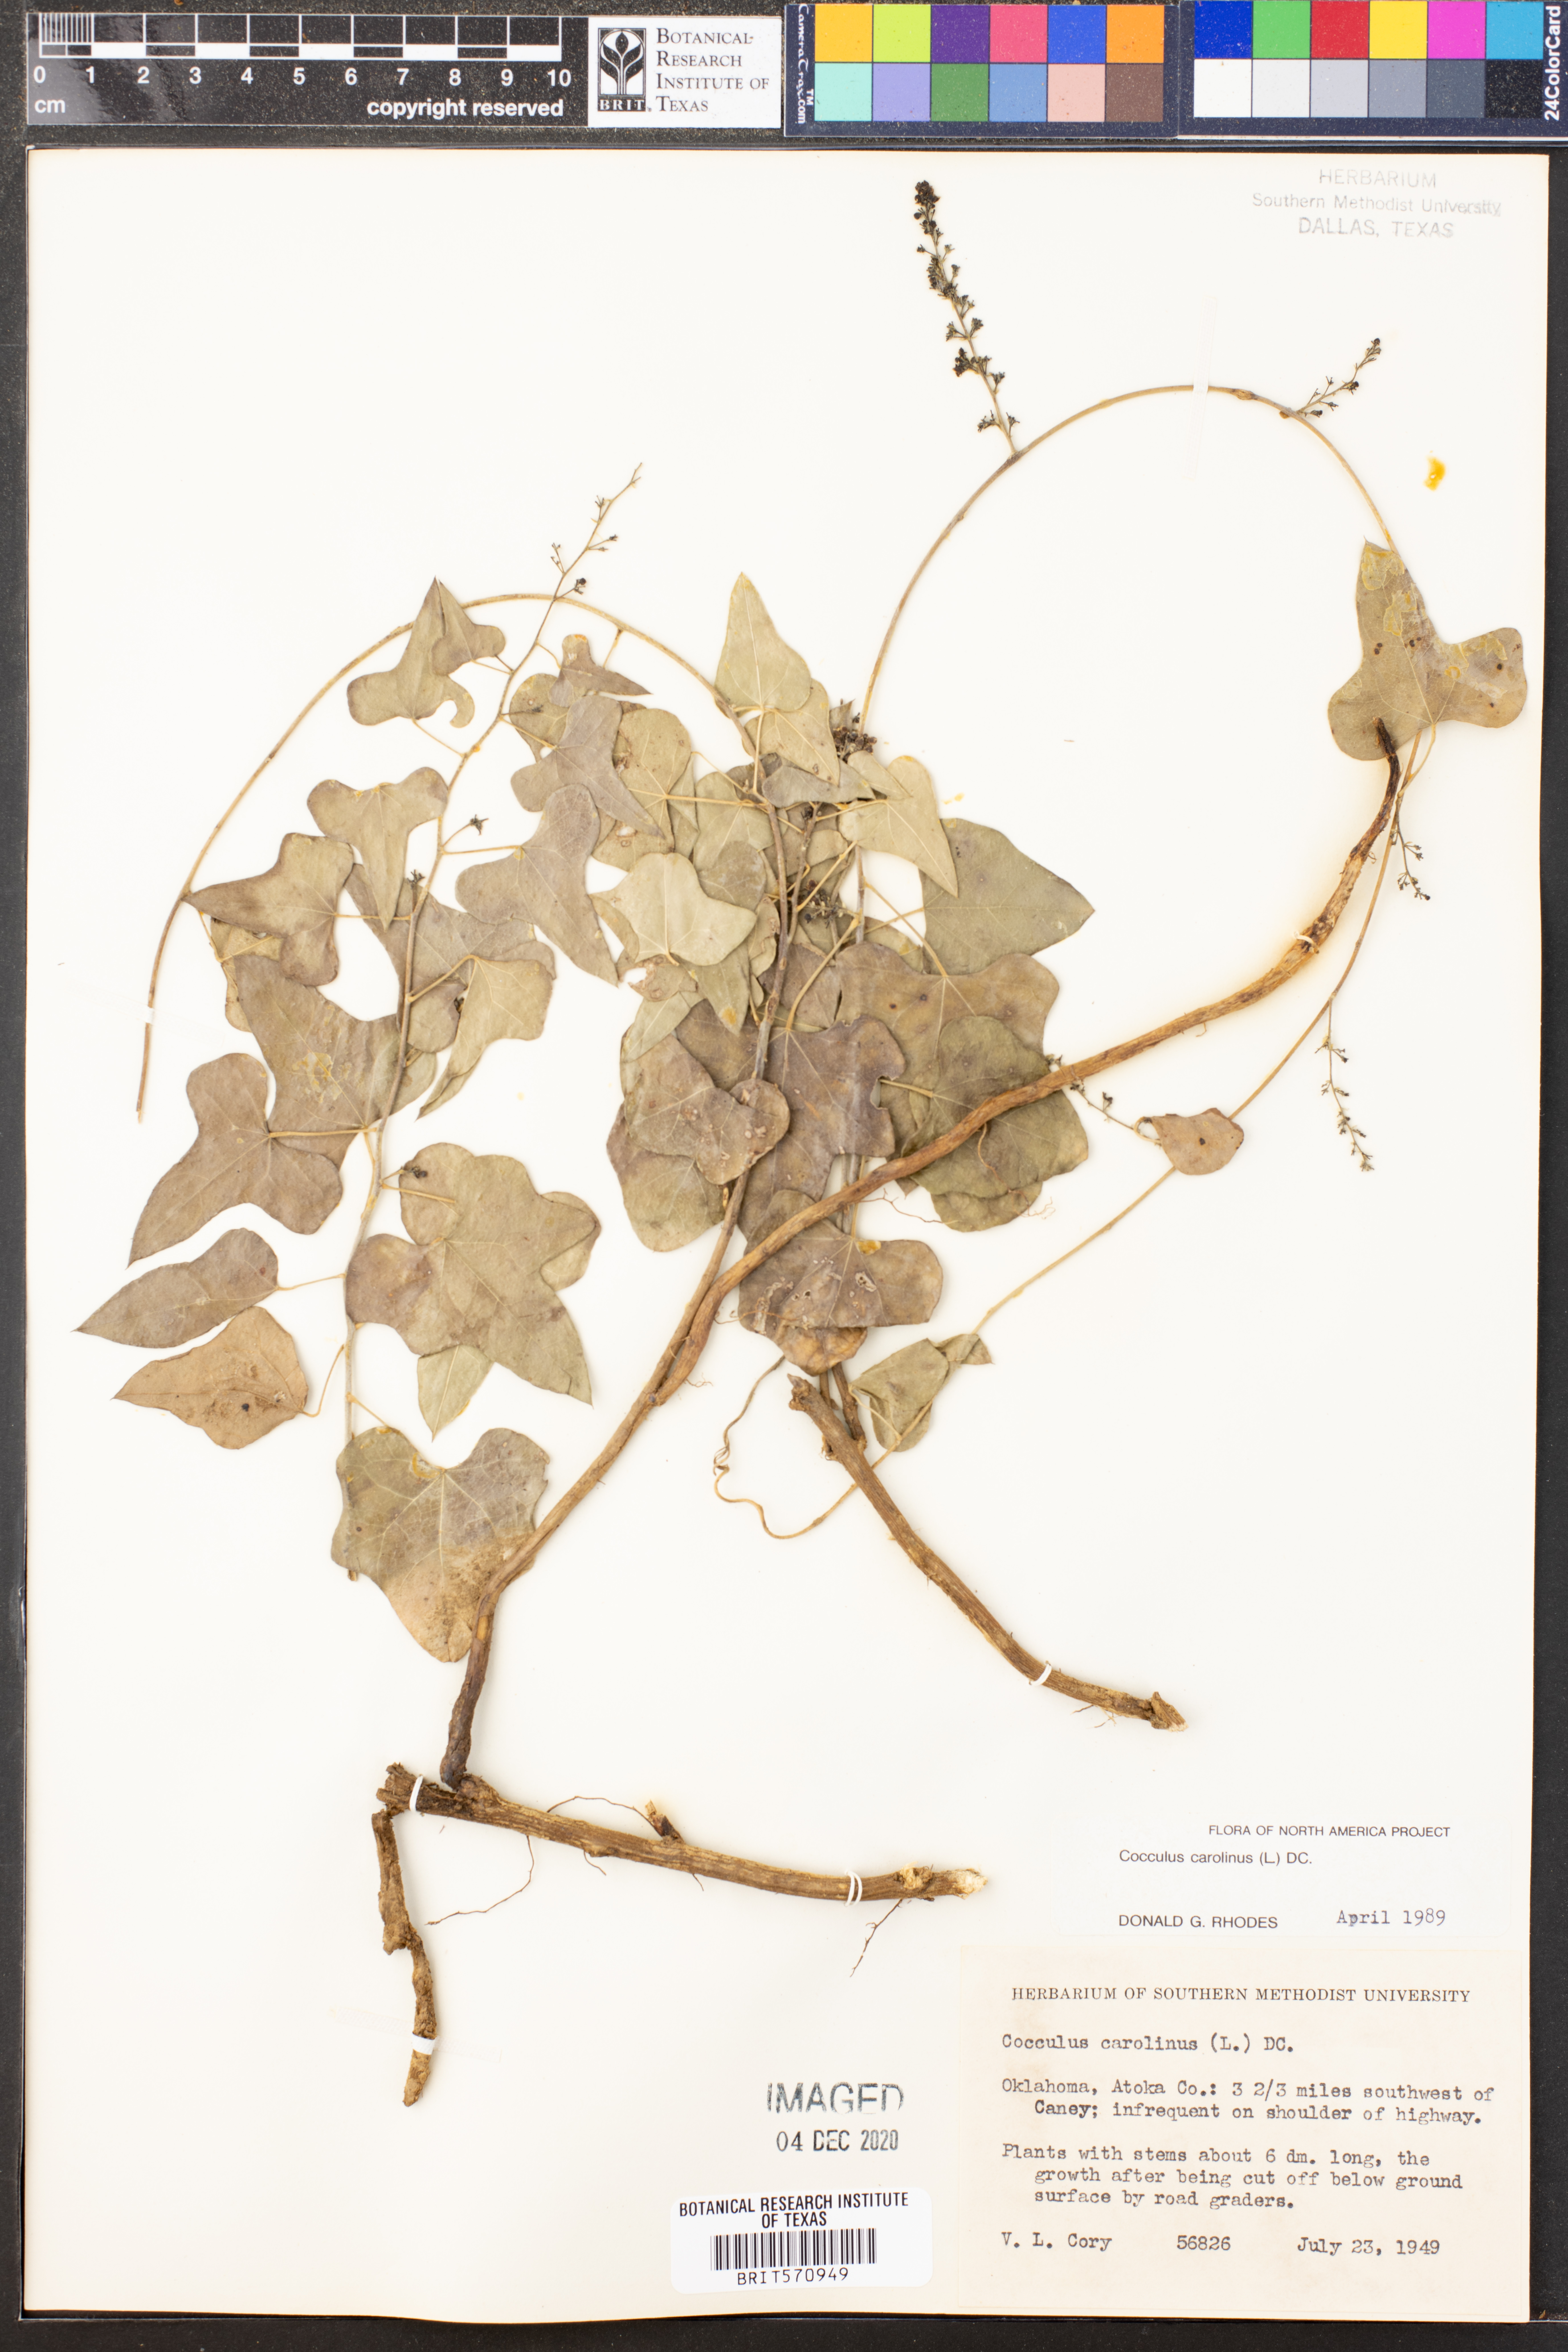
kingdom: Plantae
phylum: Tracheophyta
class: Magnoliopsida
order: Ranunculales
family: Menispermaceae
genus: Cocculus
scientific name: Cocculus carolinus
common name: Carolina moonseed
